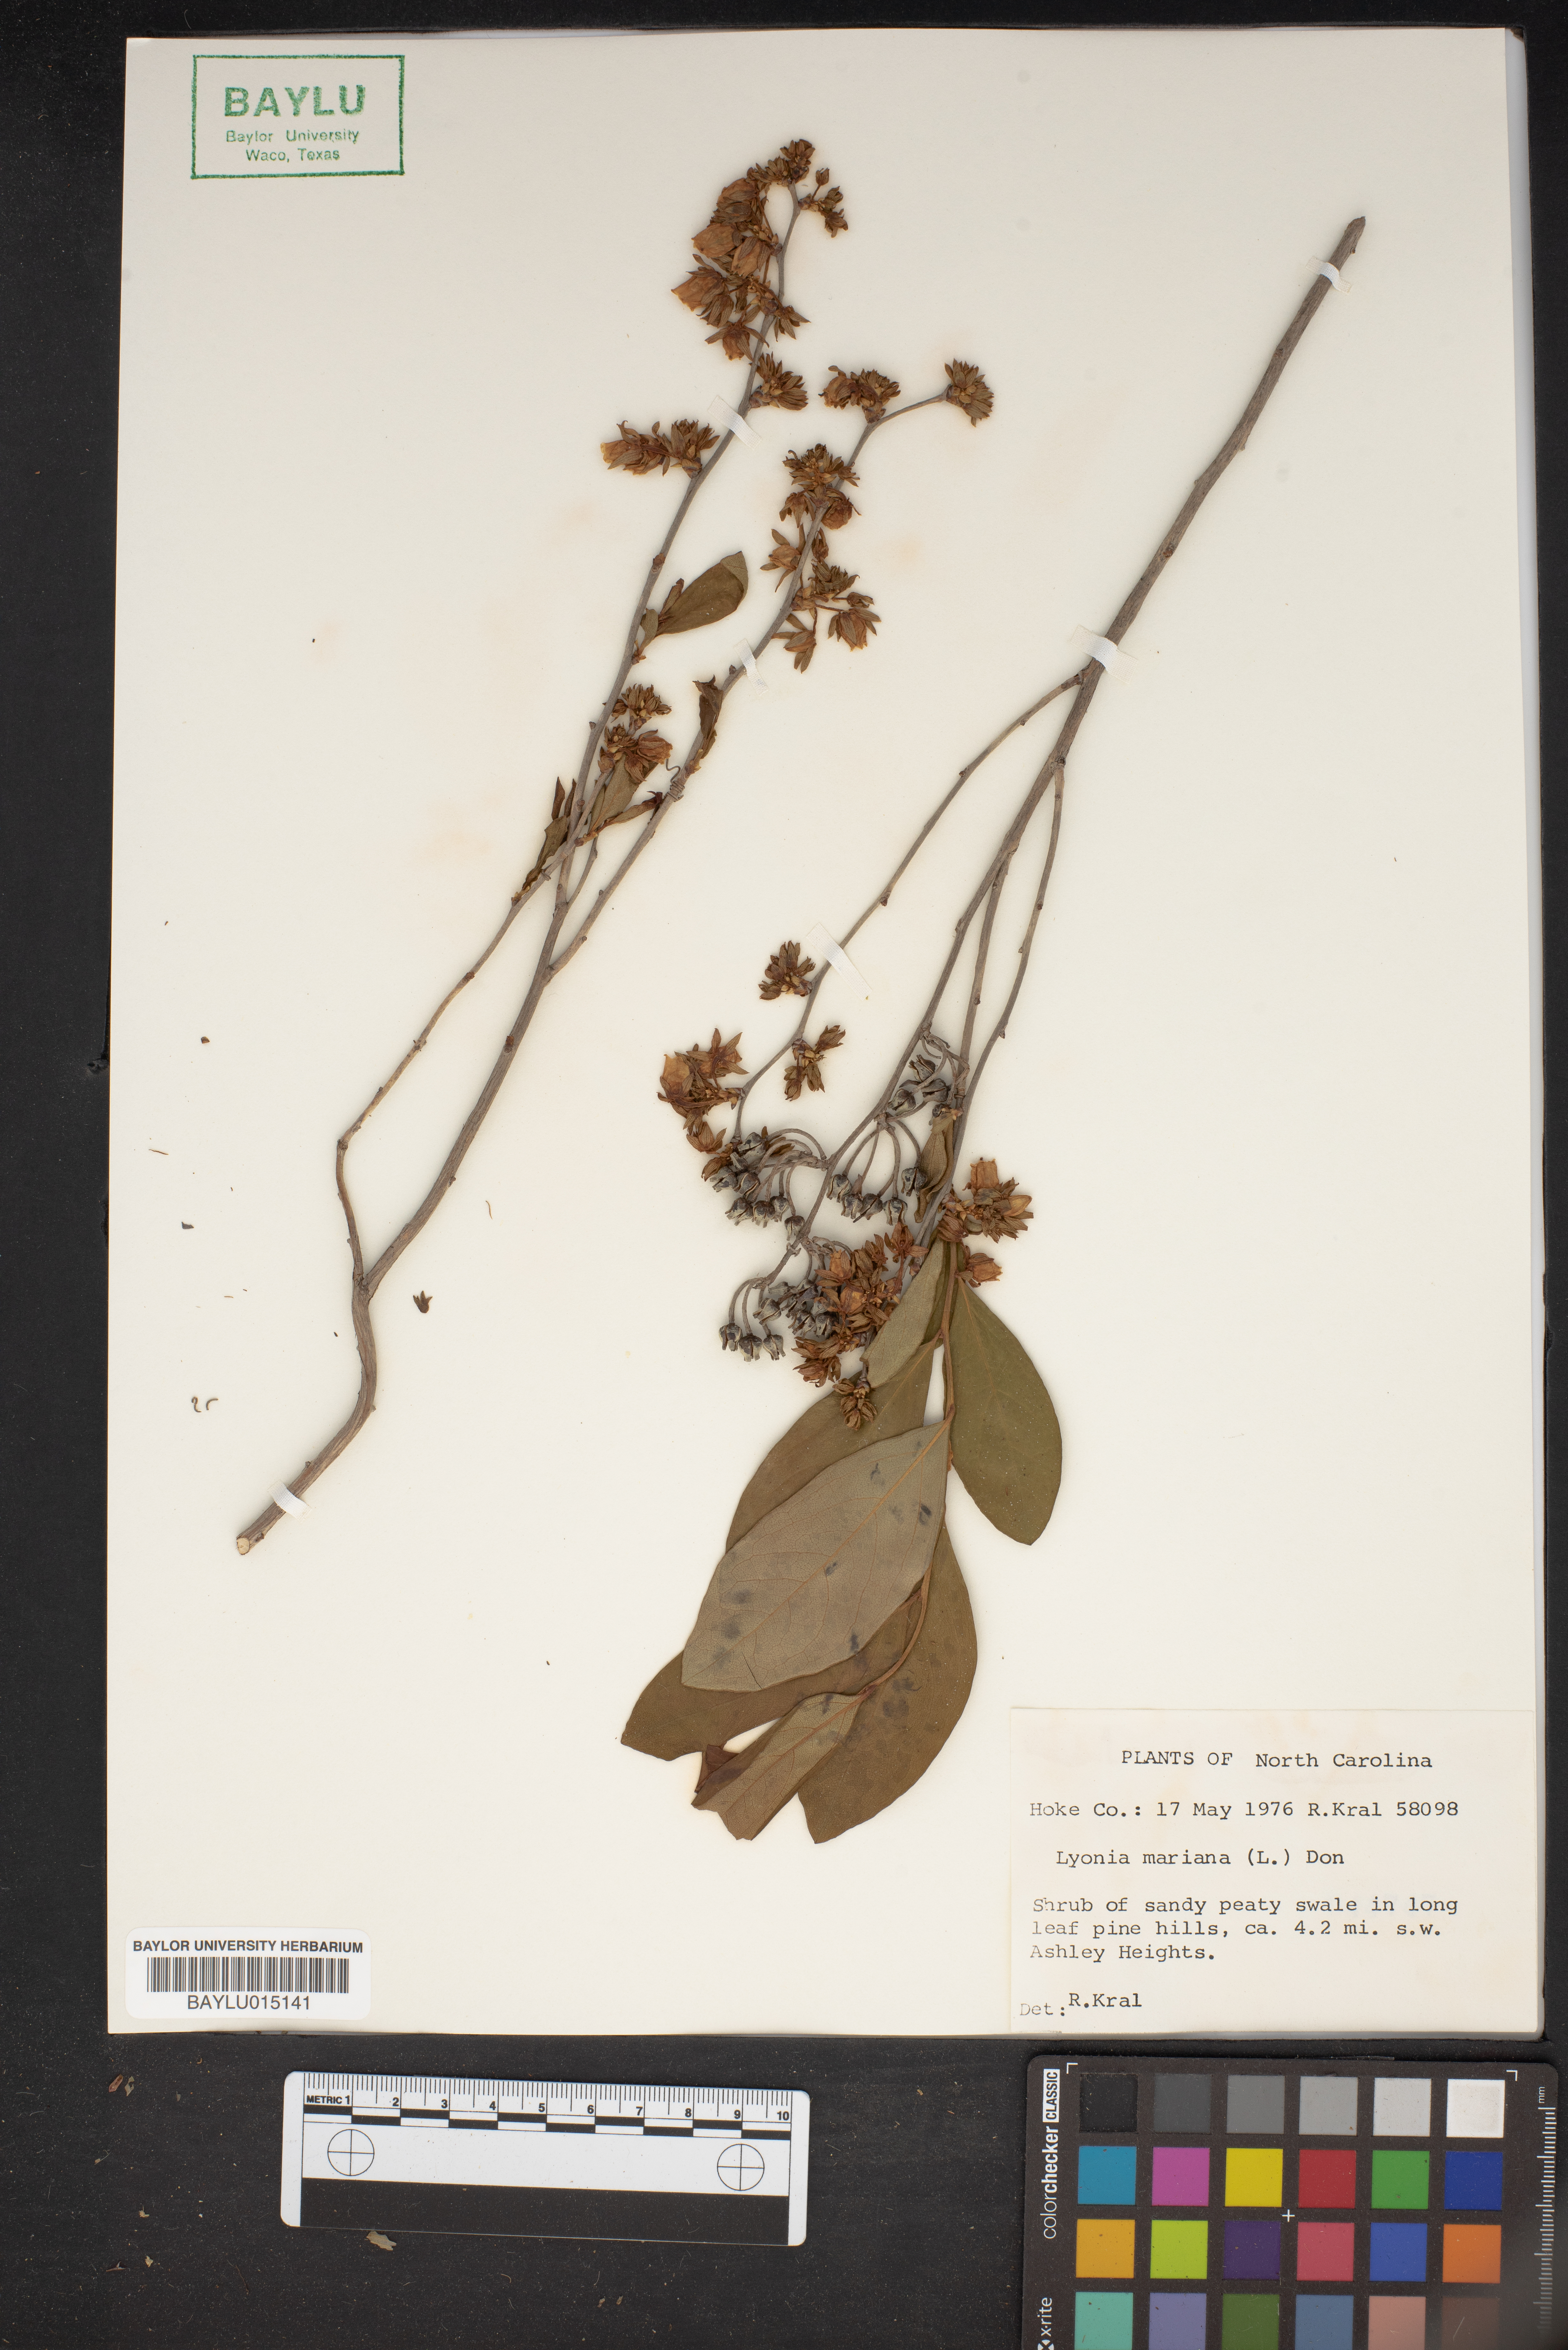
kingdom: Plantae
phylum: Tracheophyta
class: Magnoliopsida
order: Ericales
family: Ericaceae
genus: Lyonia
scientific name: Lyonia mariana
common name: Staggerbush
